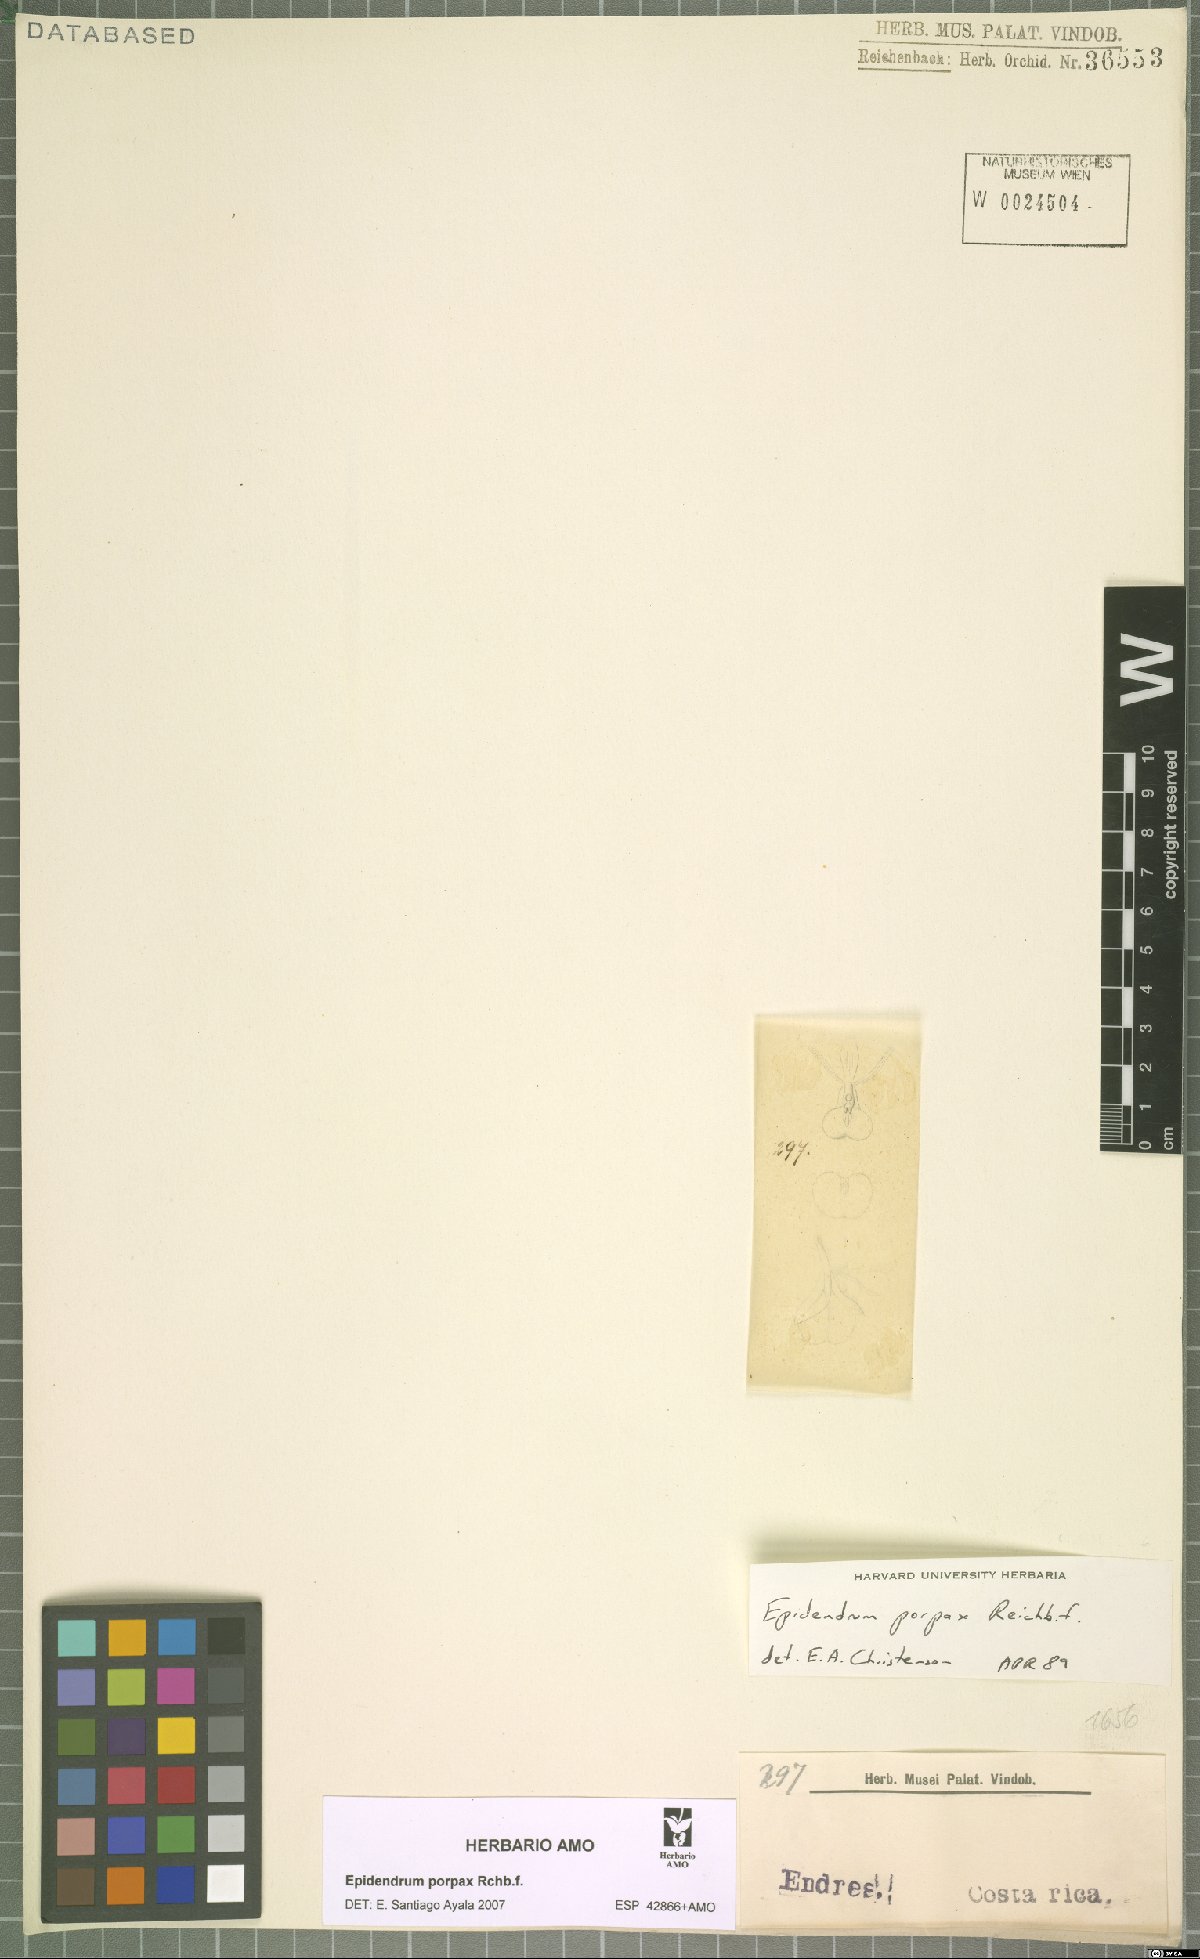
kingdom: Plantae
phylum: Tracheophyta
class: Liliopsida
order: Asparagales
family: Orchidaceae
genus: Epidendrum
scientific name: Epidendrum porpax
